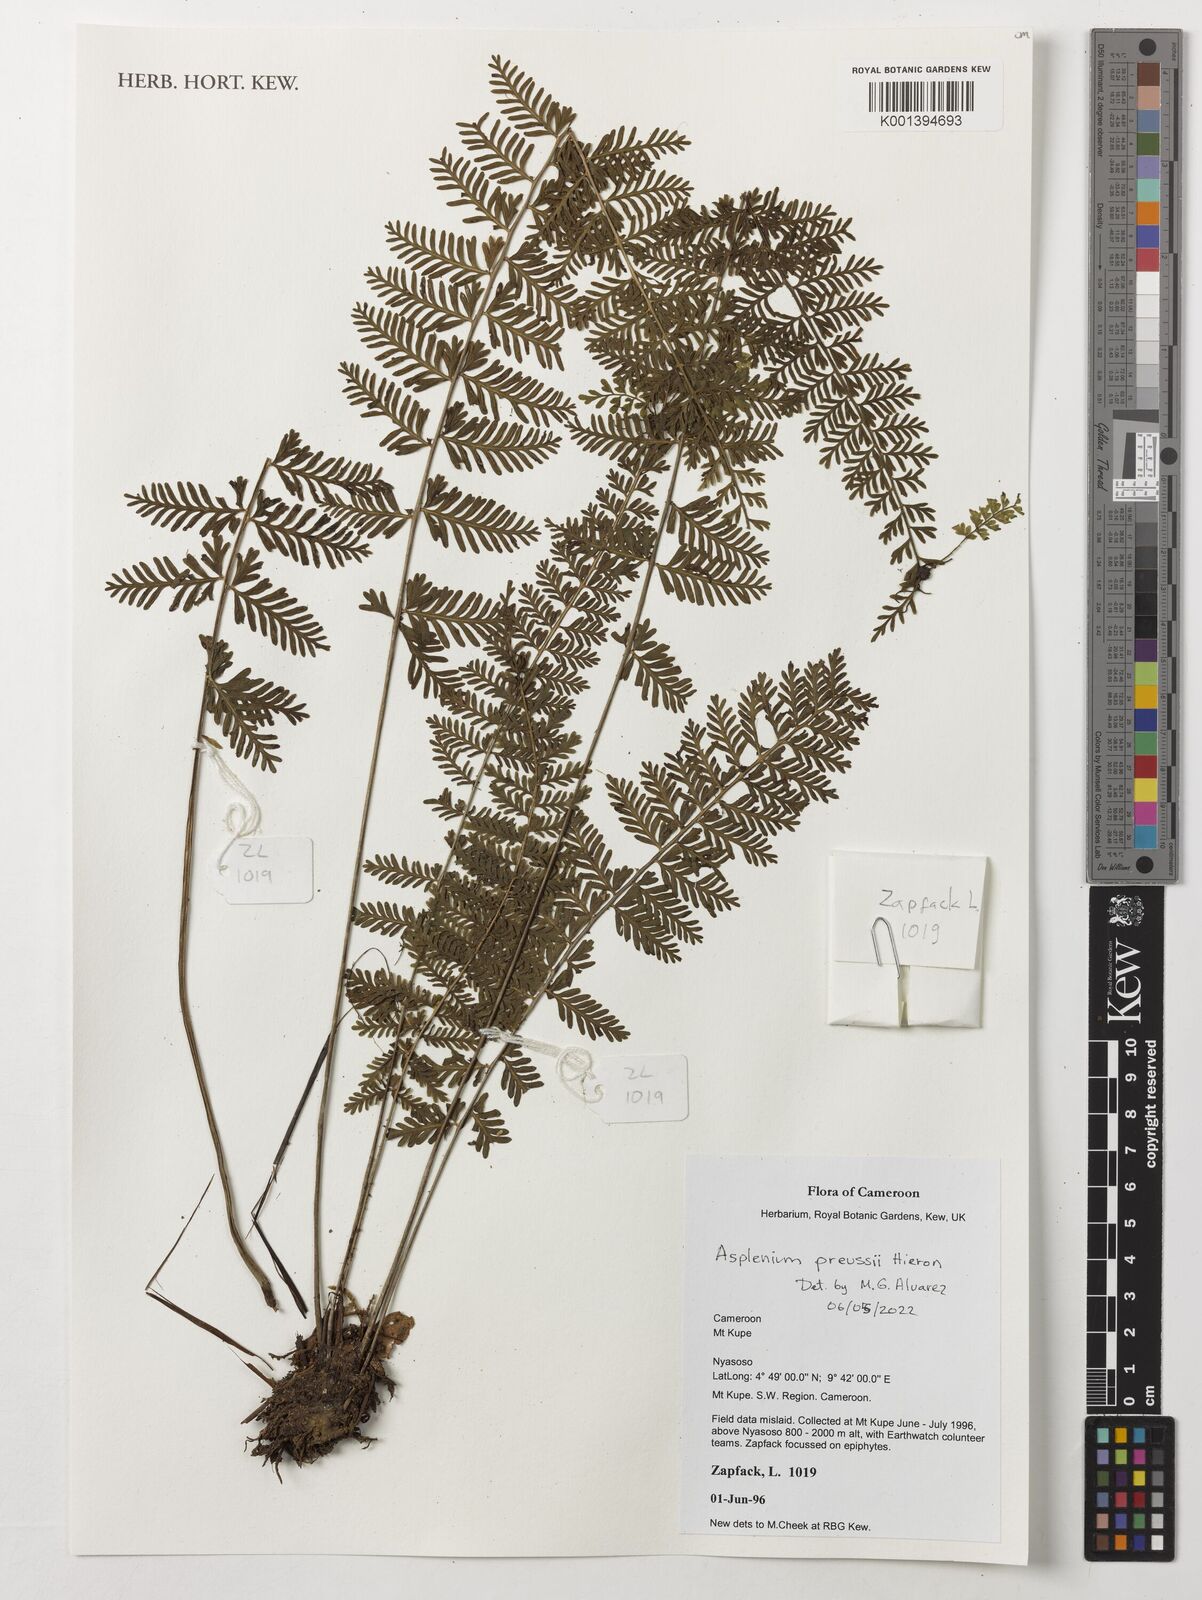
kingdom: Plantae
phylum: Tracheophyta
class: Polypodiopsida
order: Polypodiales
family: Aspleniaceae
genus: Asplenium
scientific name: Asplenium preussii
